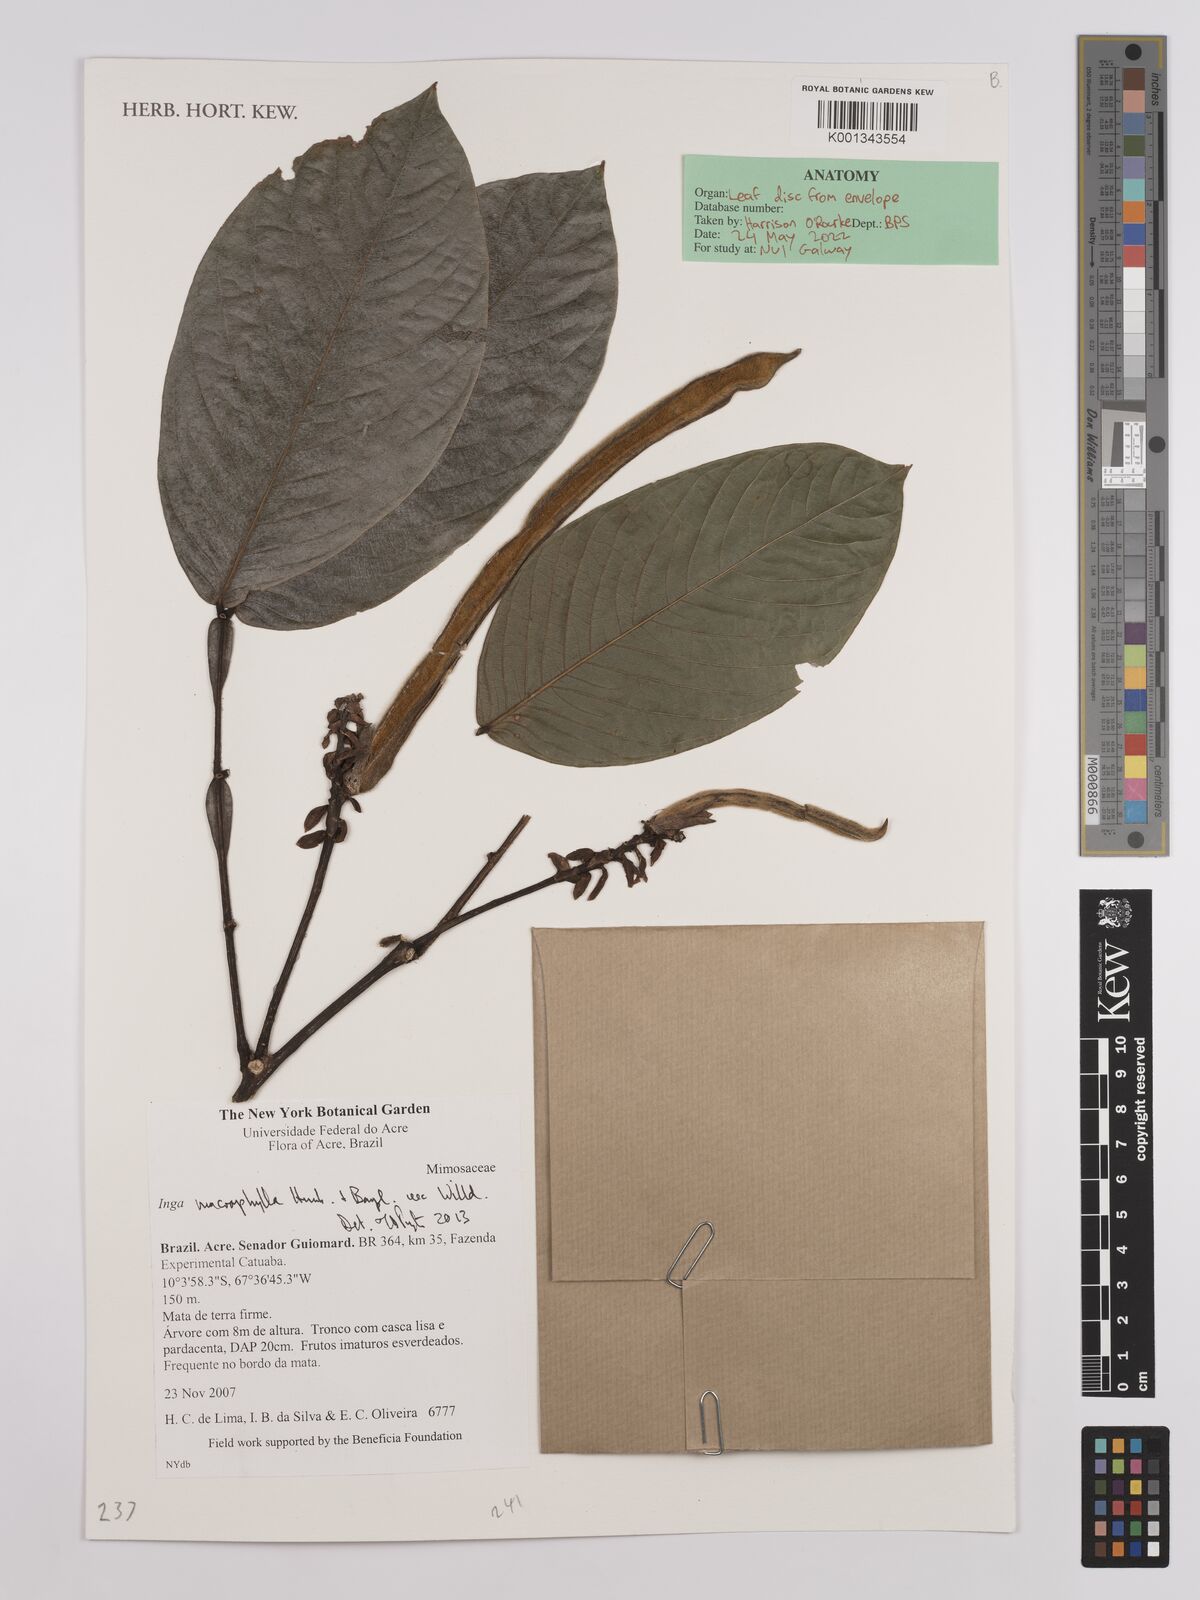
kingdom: Plantae
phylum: Tracheophyta
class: Magnoliopsida
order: Fabales
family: Fabaceae
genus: Inga
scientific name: Inga
